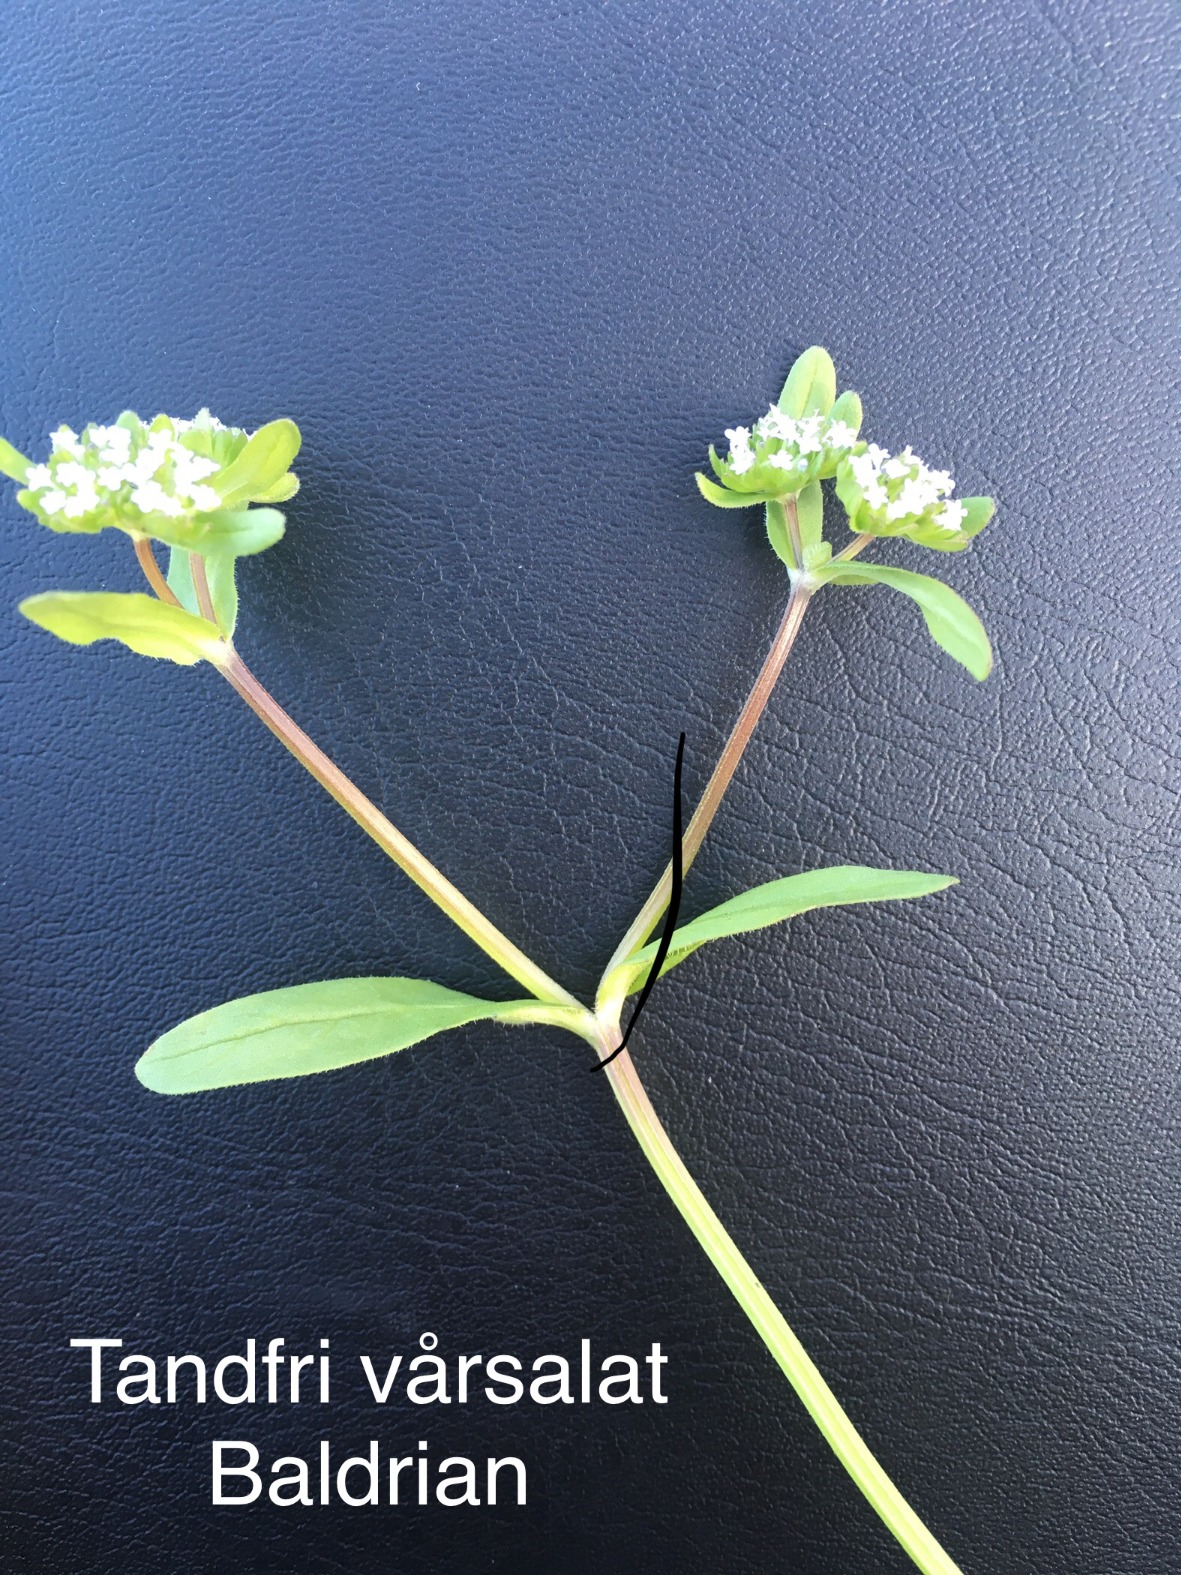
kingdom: Plantae
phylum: Tracheophyta
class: Magnoliopsida
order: Dipsacales
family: Caprifoliaceae
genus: Valerianella
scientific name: Valerianella locusta
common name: Tandfri vårsalat
